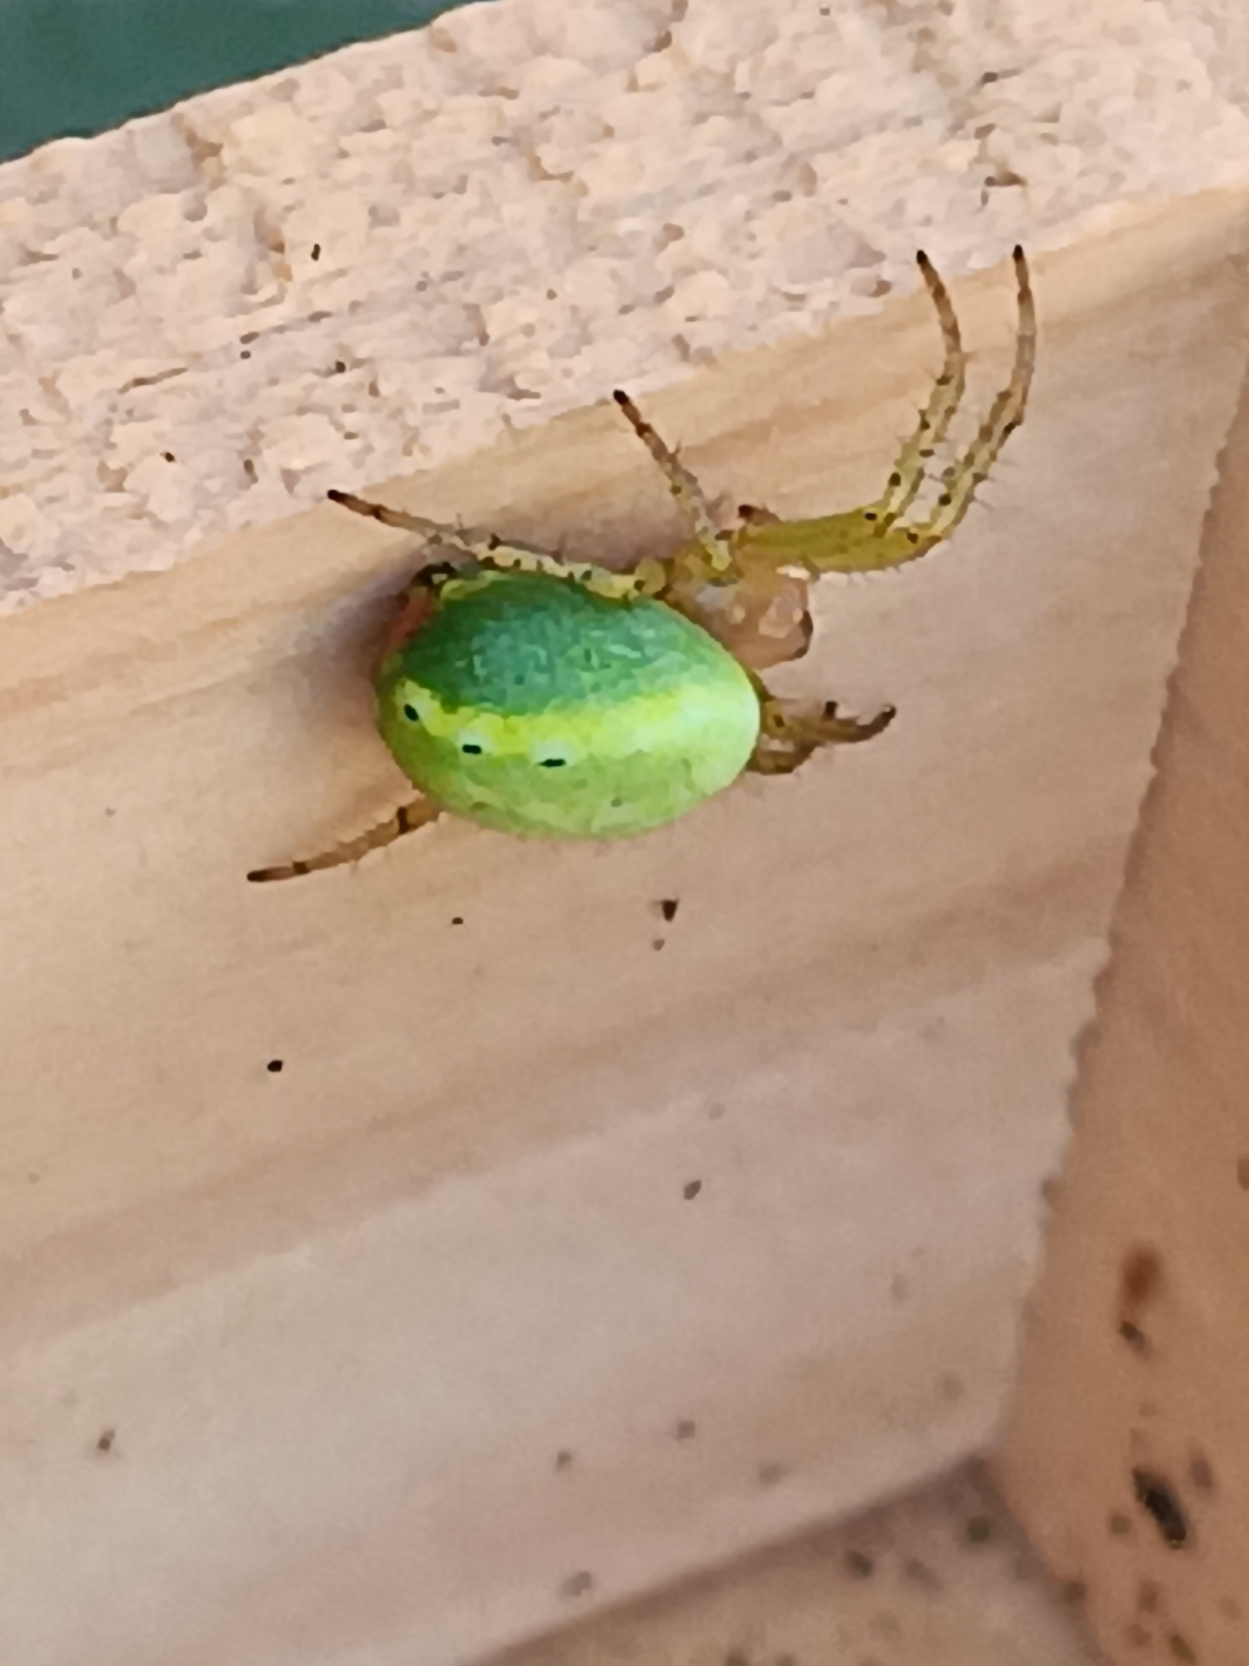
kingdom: Animalia
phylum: Arthropoda
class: Arachnida
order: Araneae
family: Araneidae
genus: Araniella
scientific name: Araniella
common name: Agurkeedderkopslægten
